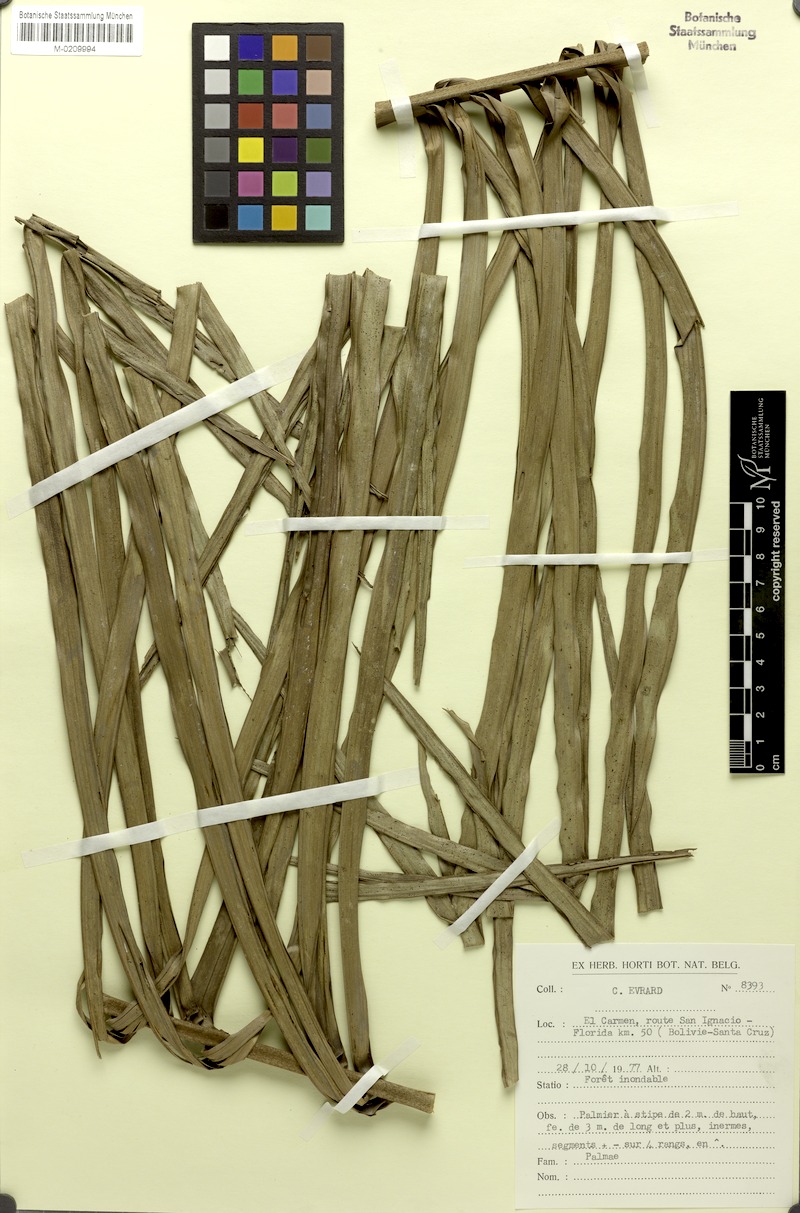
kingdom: Plantae
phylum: Tracheophyta
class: Liliopsida
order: Arecales
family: Arecaceae
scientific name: Arecaceae
